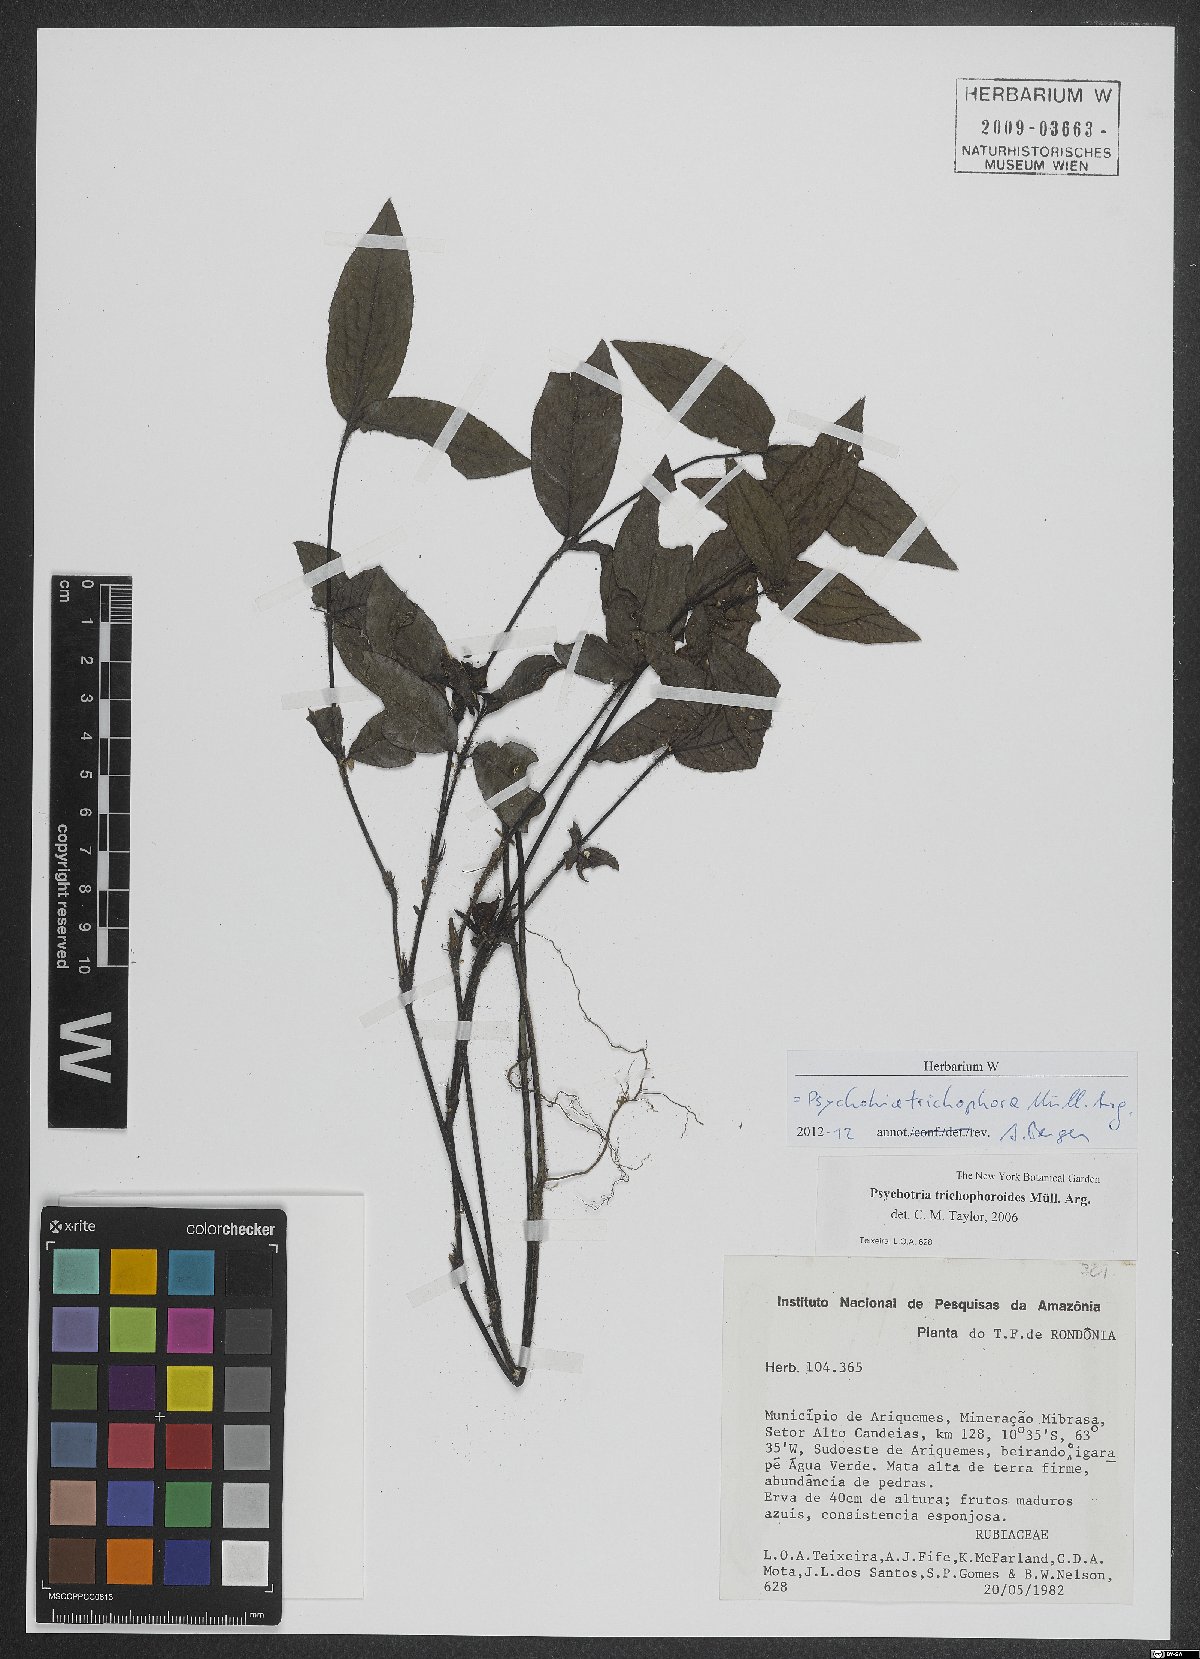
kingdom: Plantae
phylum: Tracheophyta
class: Magnoliopsida
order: Gentianales
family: Rubiaceae
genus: Palicourea
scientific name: Palicourea trichophora
